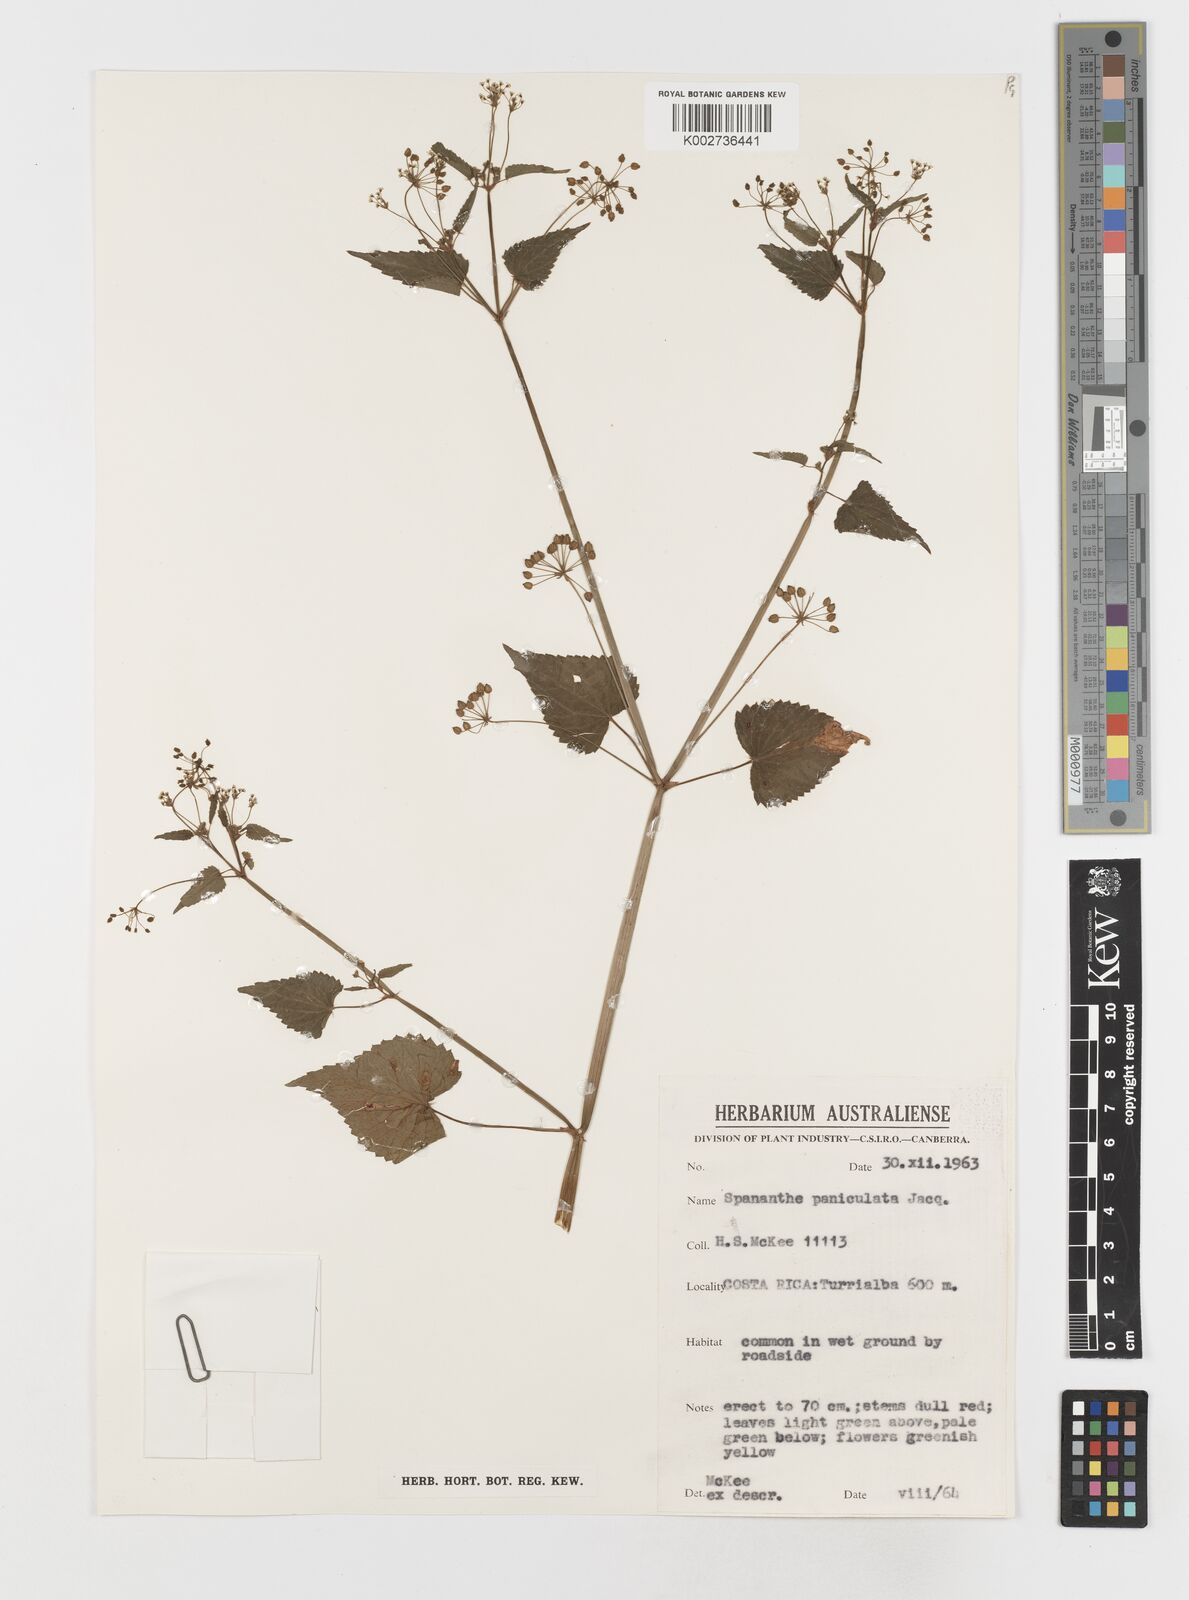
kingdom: Plantae
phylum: Tracheophyta
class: Magnoliopsida
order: Apiales
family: Apiaceae
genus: Spananthe
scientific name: Spananthe paniculata
